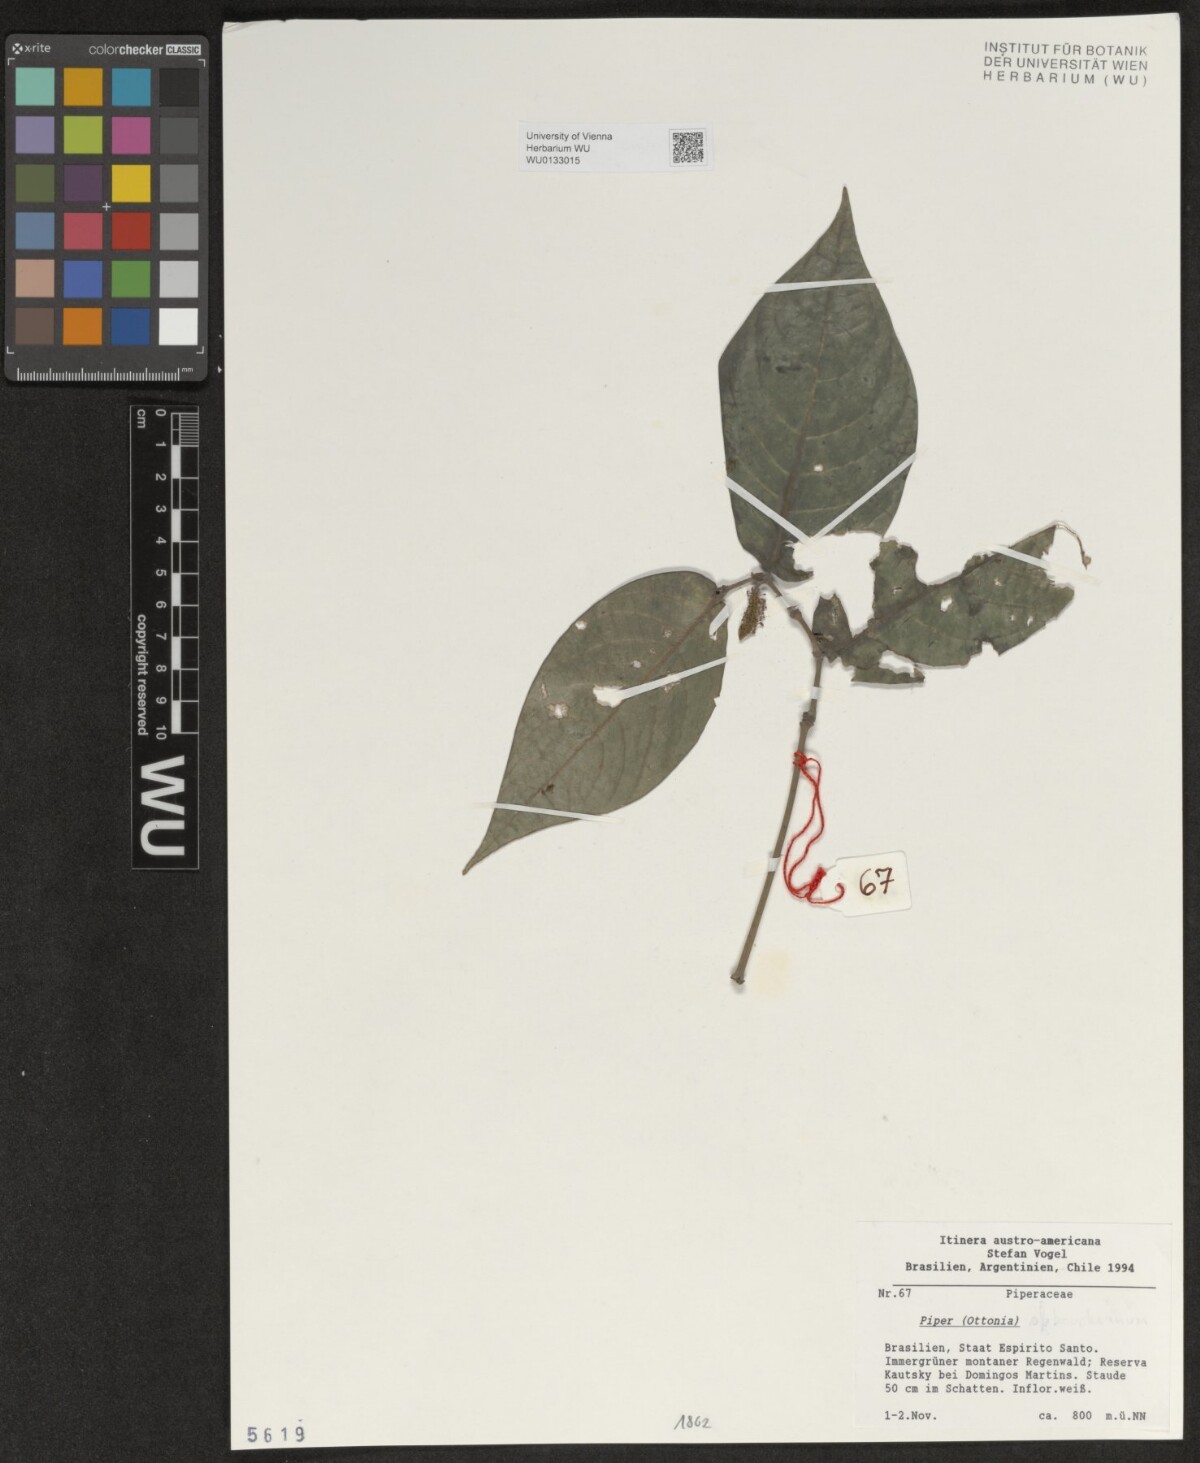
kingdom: Plantae
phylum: Tracheophyta
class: Magnoliopsida
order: Piperales
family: Piperaceae
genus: Piper
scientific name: Piper
